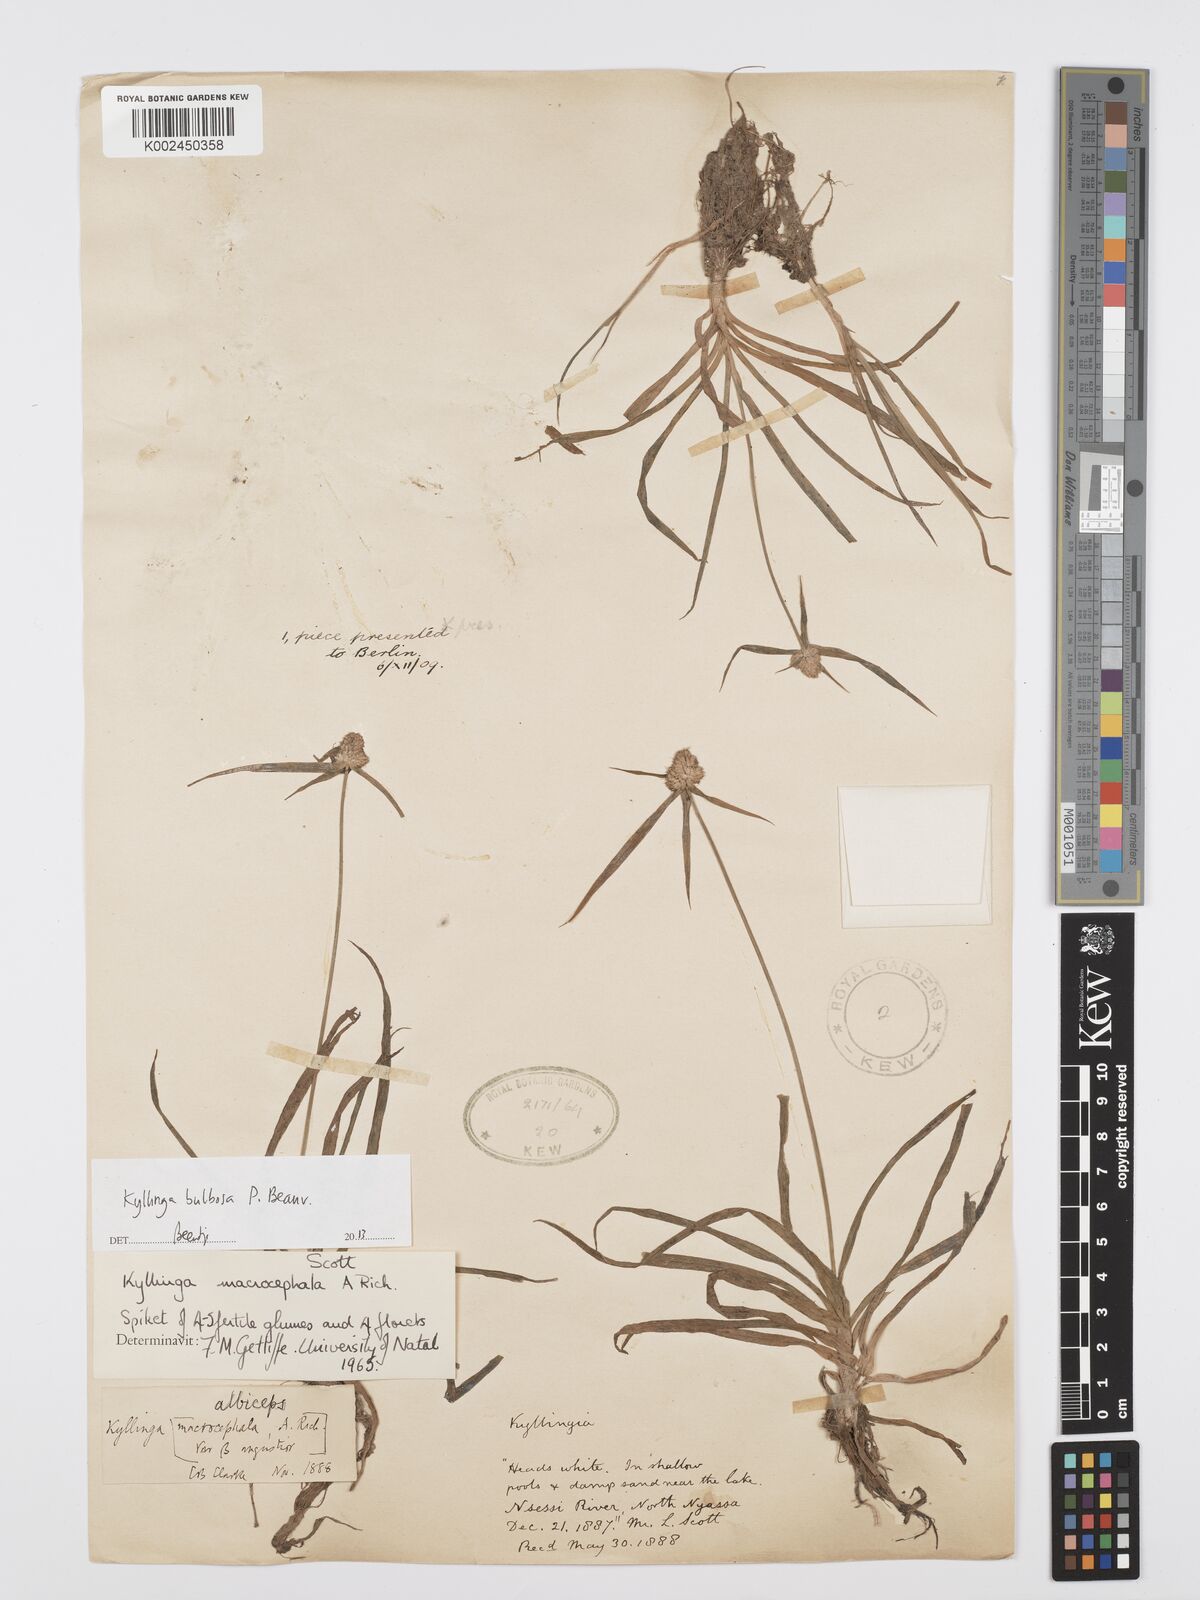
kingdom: Plantae
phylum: Tracheophyta
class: Liliopsida
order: Poales
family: Cyperaceae
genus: Cyperus
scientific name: Cyperus
